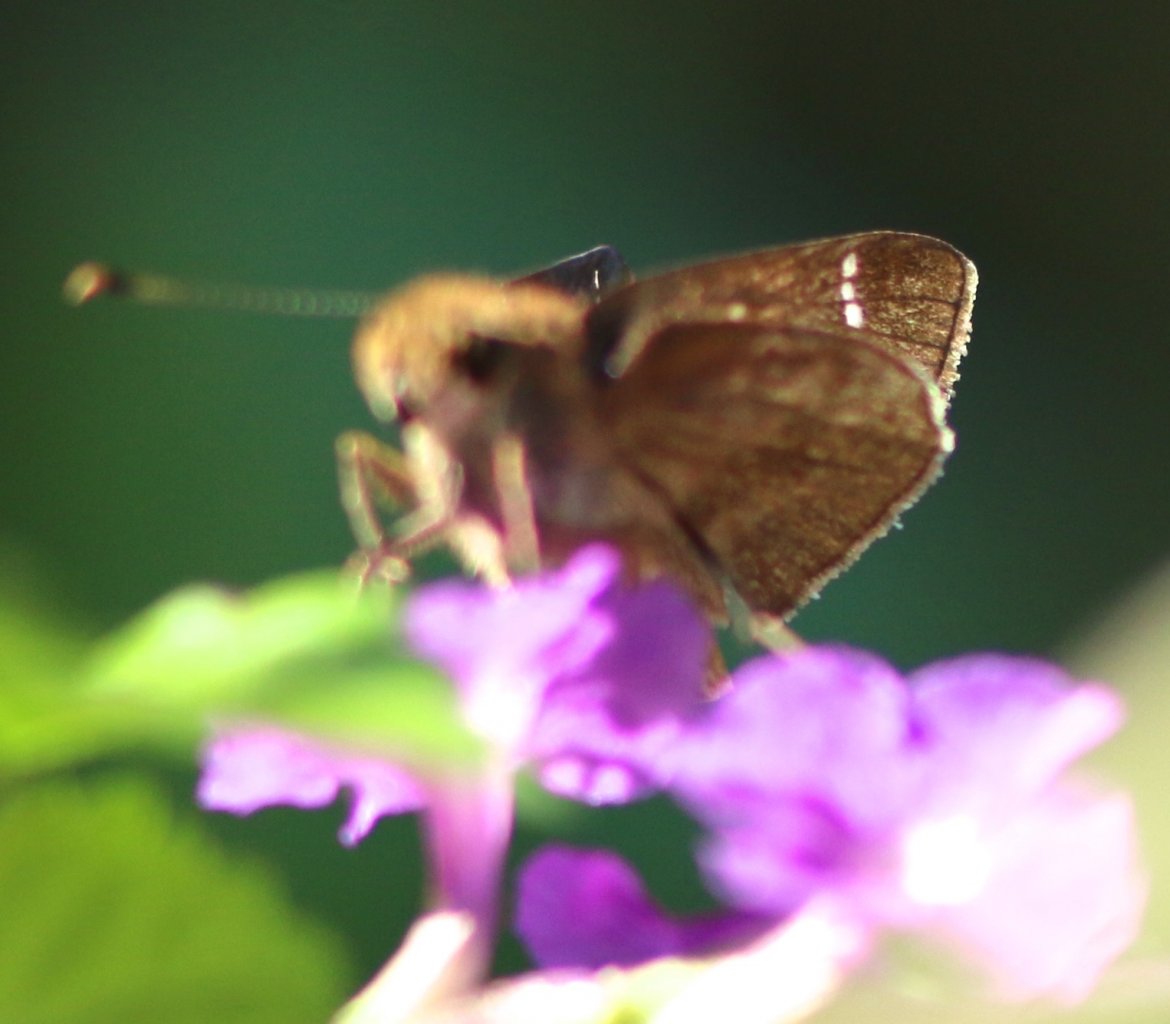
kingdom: Animalia
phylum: Arthropoda
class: Insecta
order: Lepidoptera
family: Hesperiidae
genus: Lerodea
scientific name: Lerodea arabus
